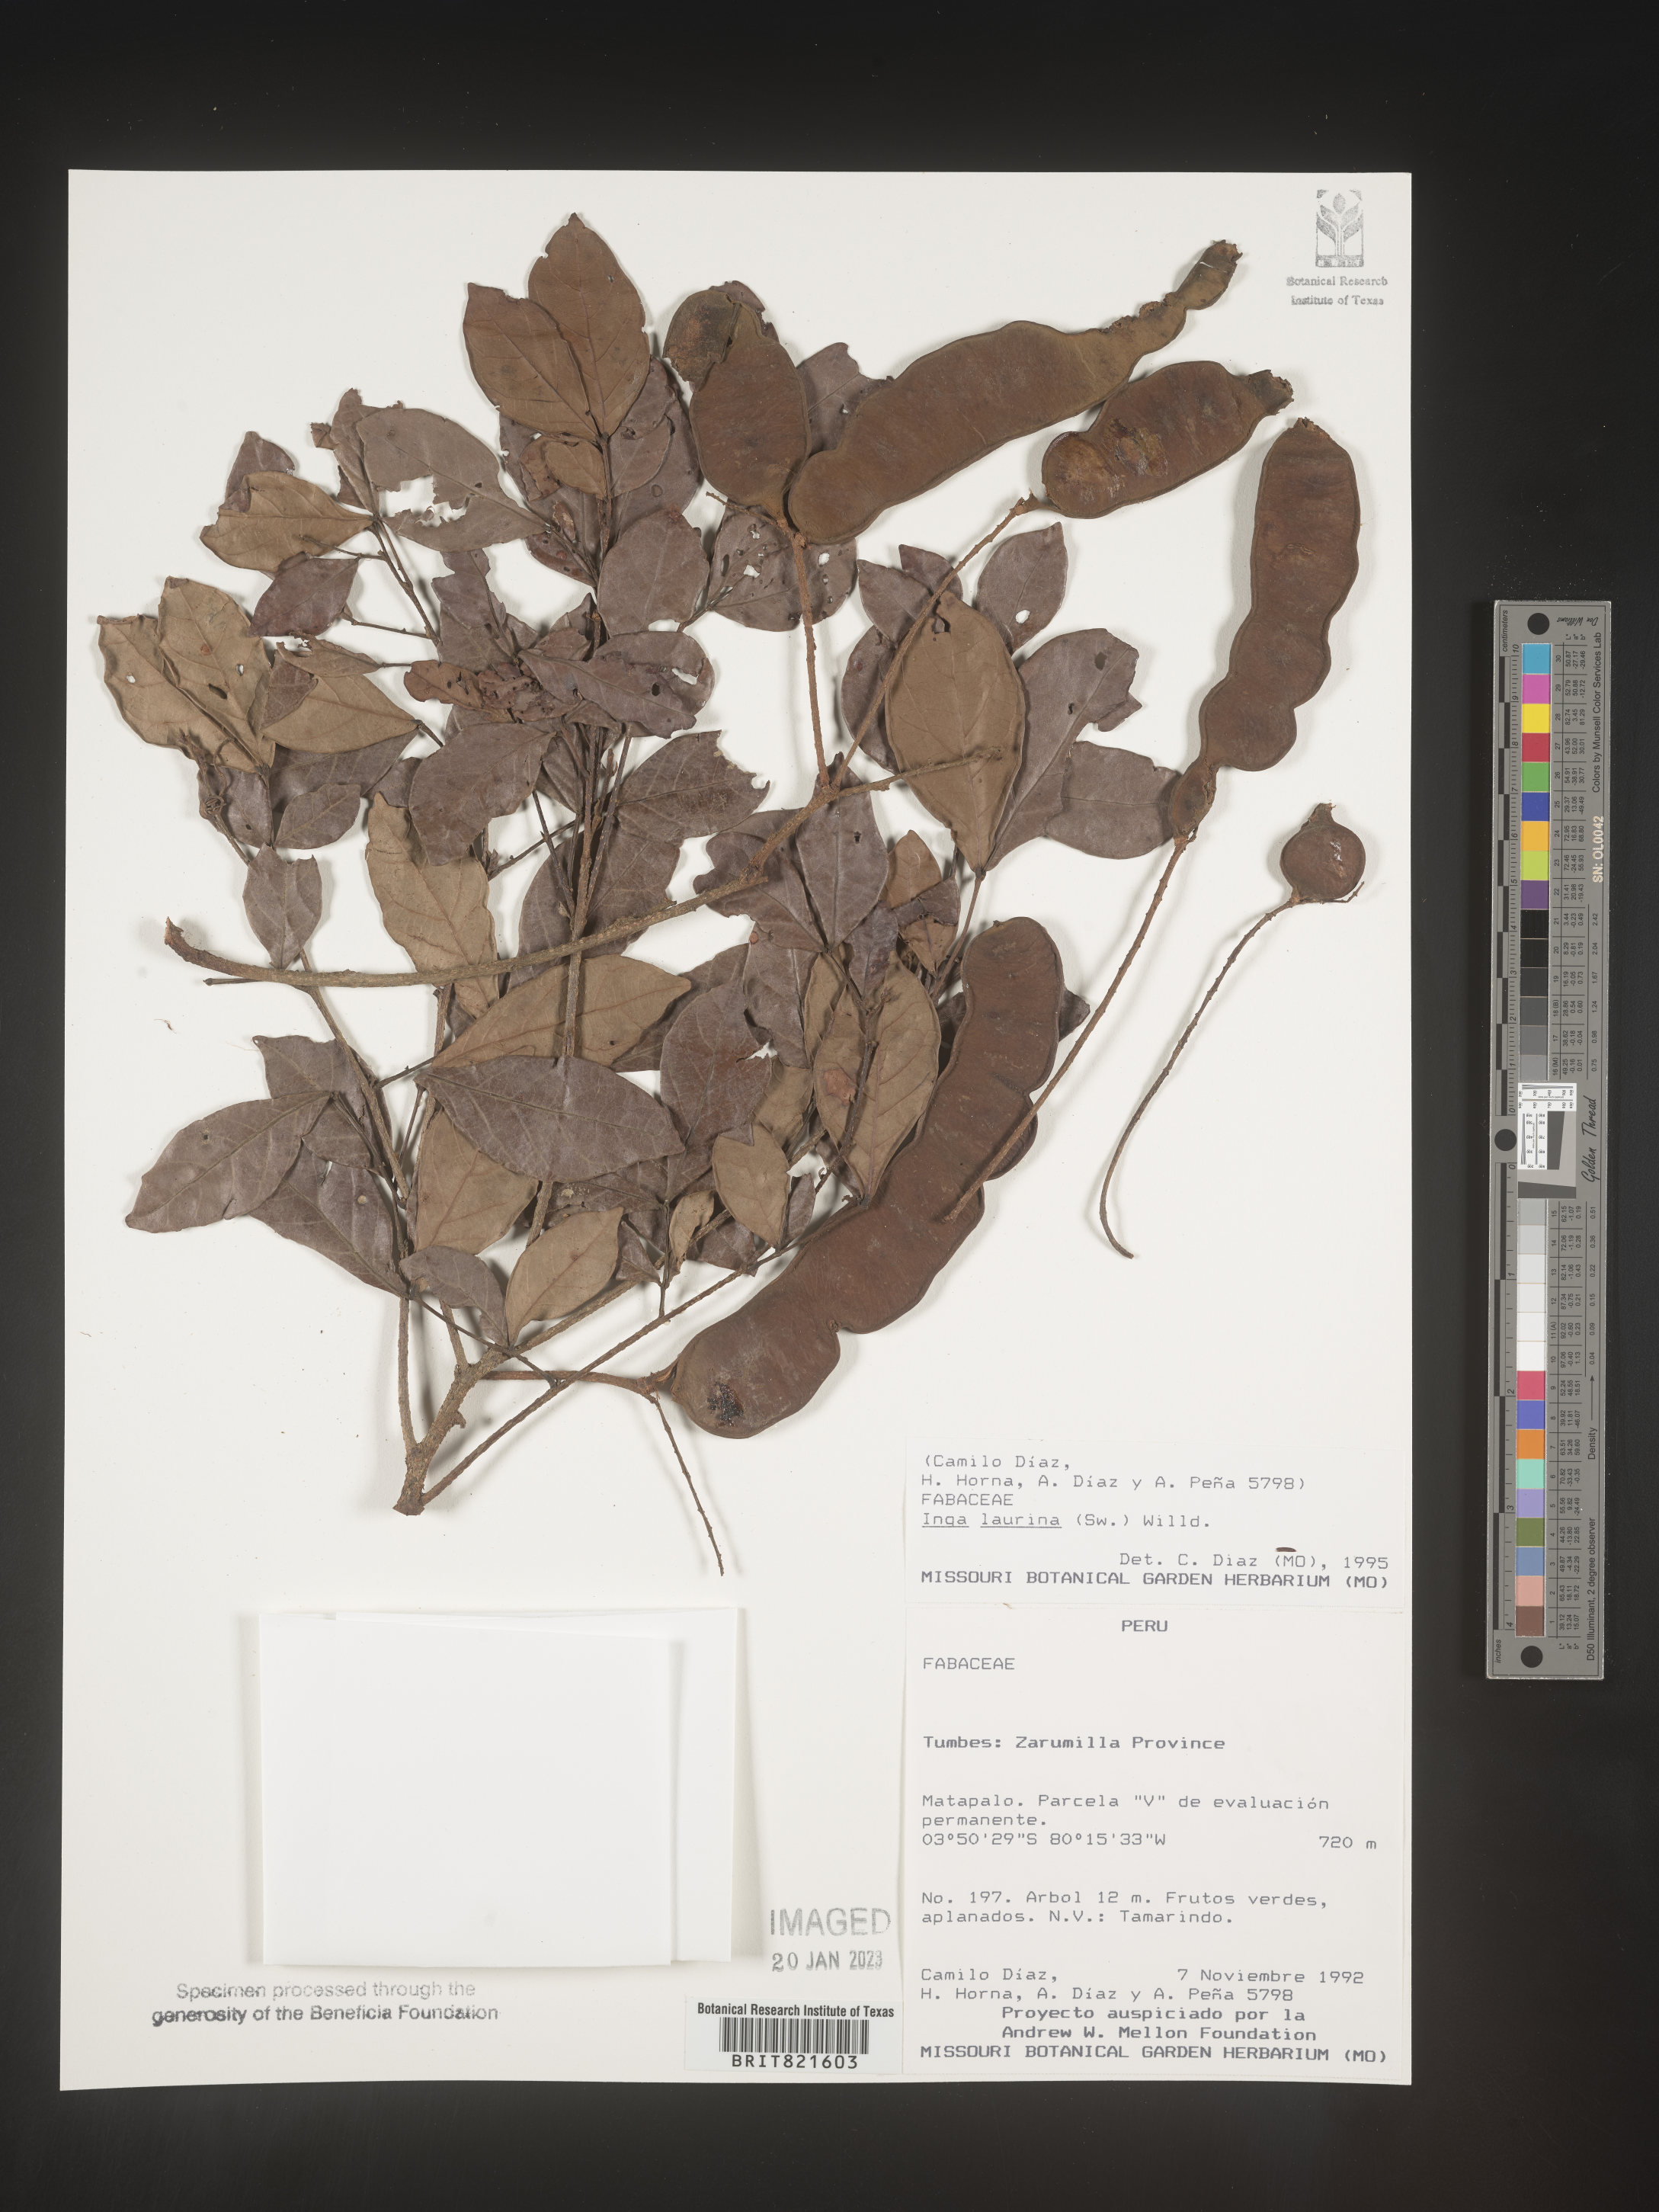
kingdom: Plantae
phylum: Tracheophyta
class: Magnoliopsida
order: Fabales
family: Fabaceae
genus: Inga
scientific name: Inga
